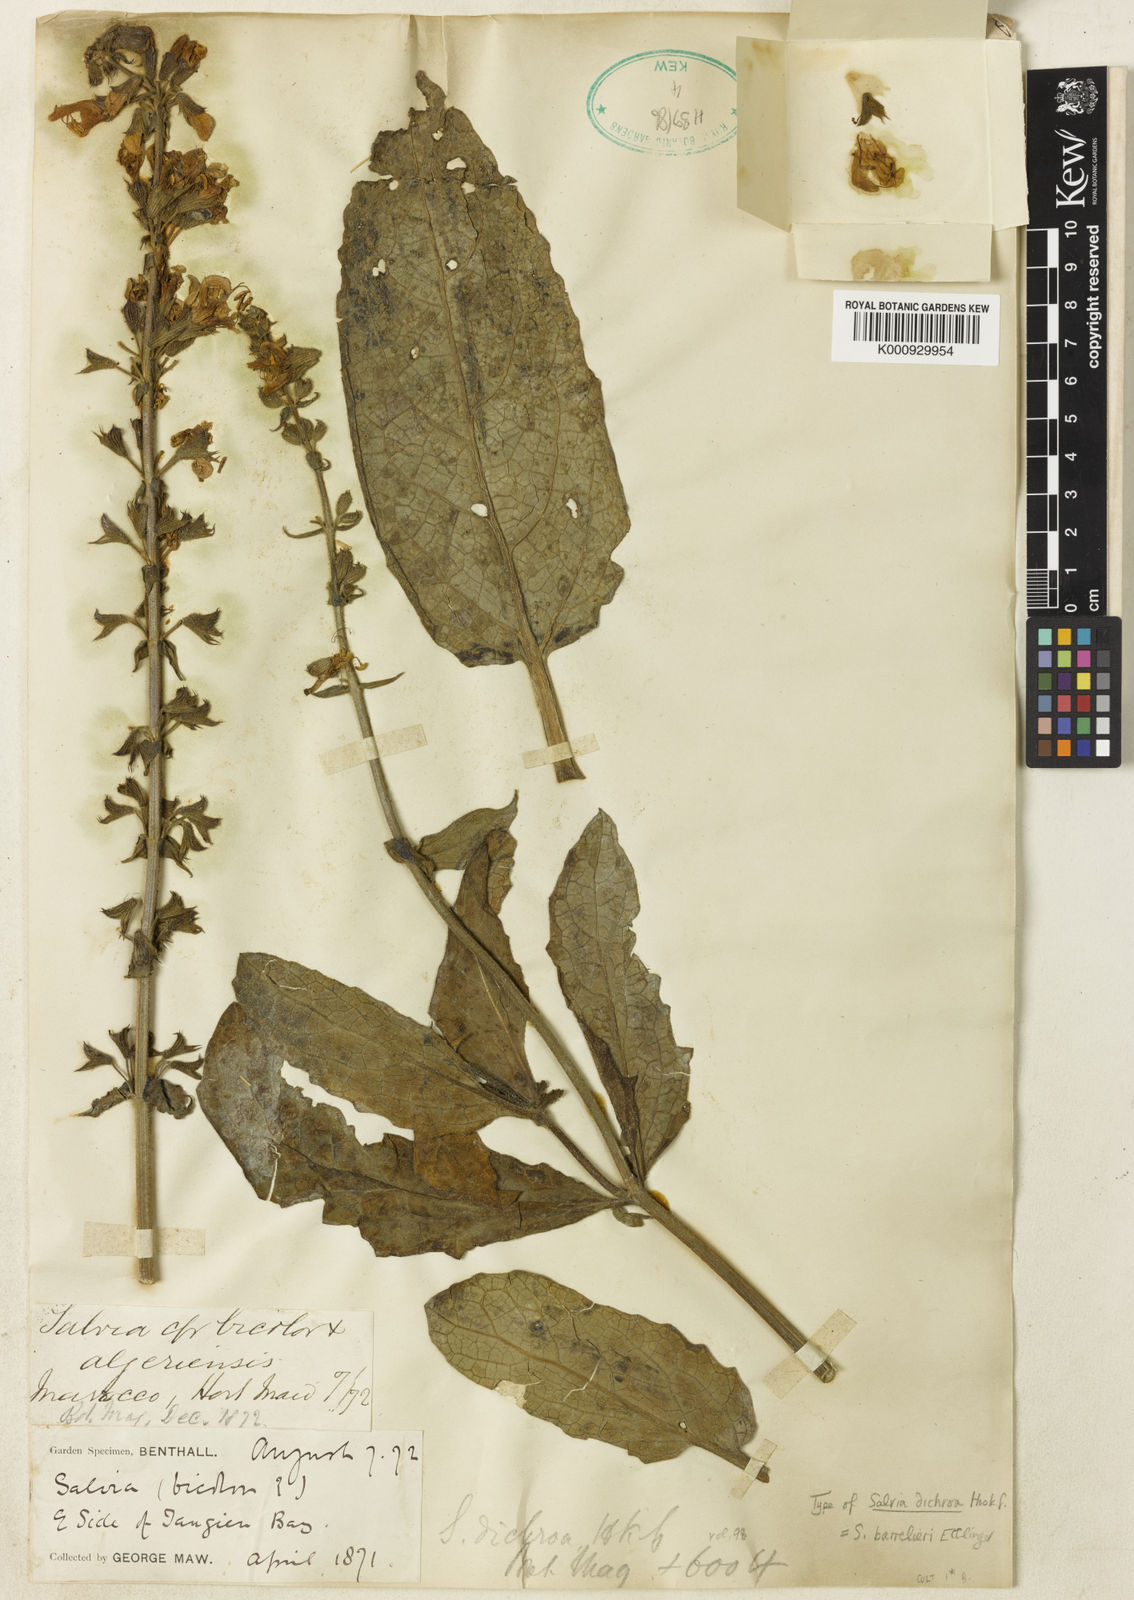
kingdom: Plantae
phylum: Tracheophyta
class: Magnoliopsida
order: Lamiales
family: Lamiaceae
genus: Salvia
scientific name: Salvia barrelieri
